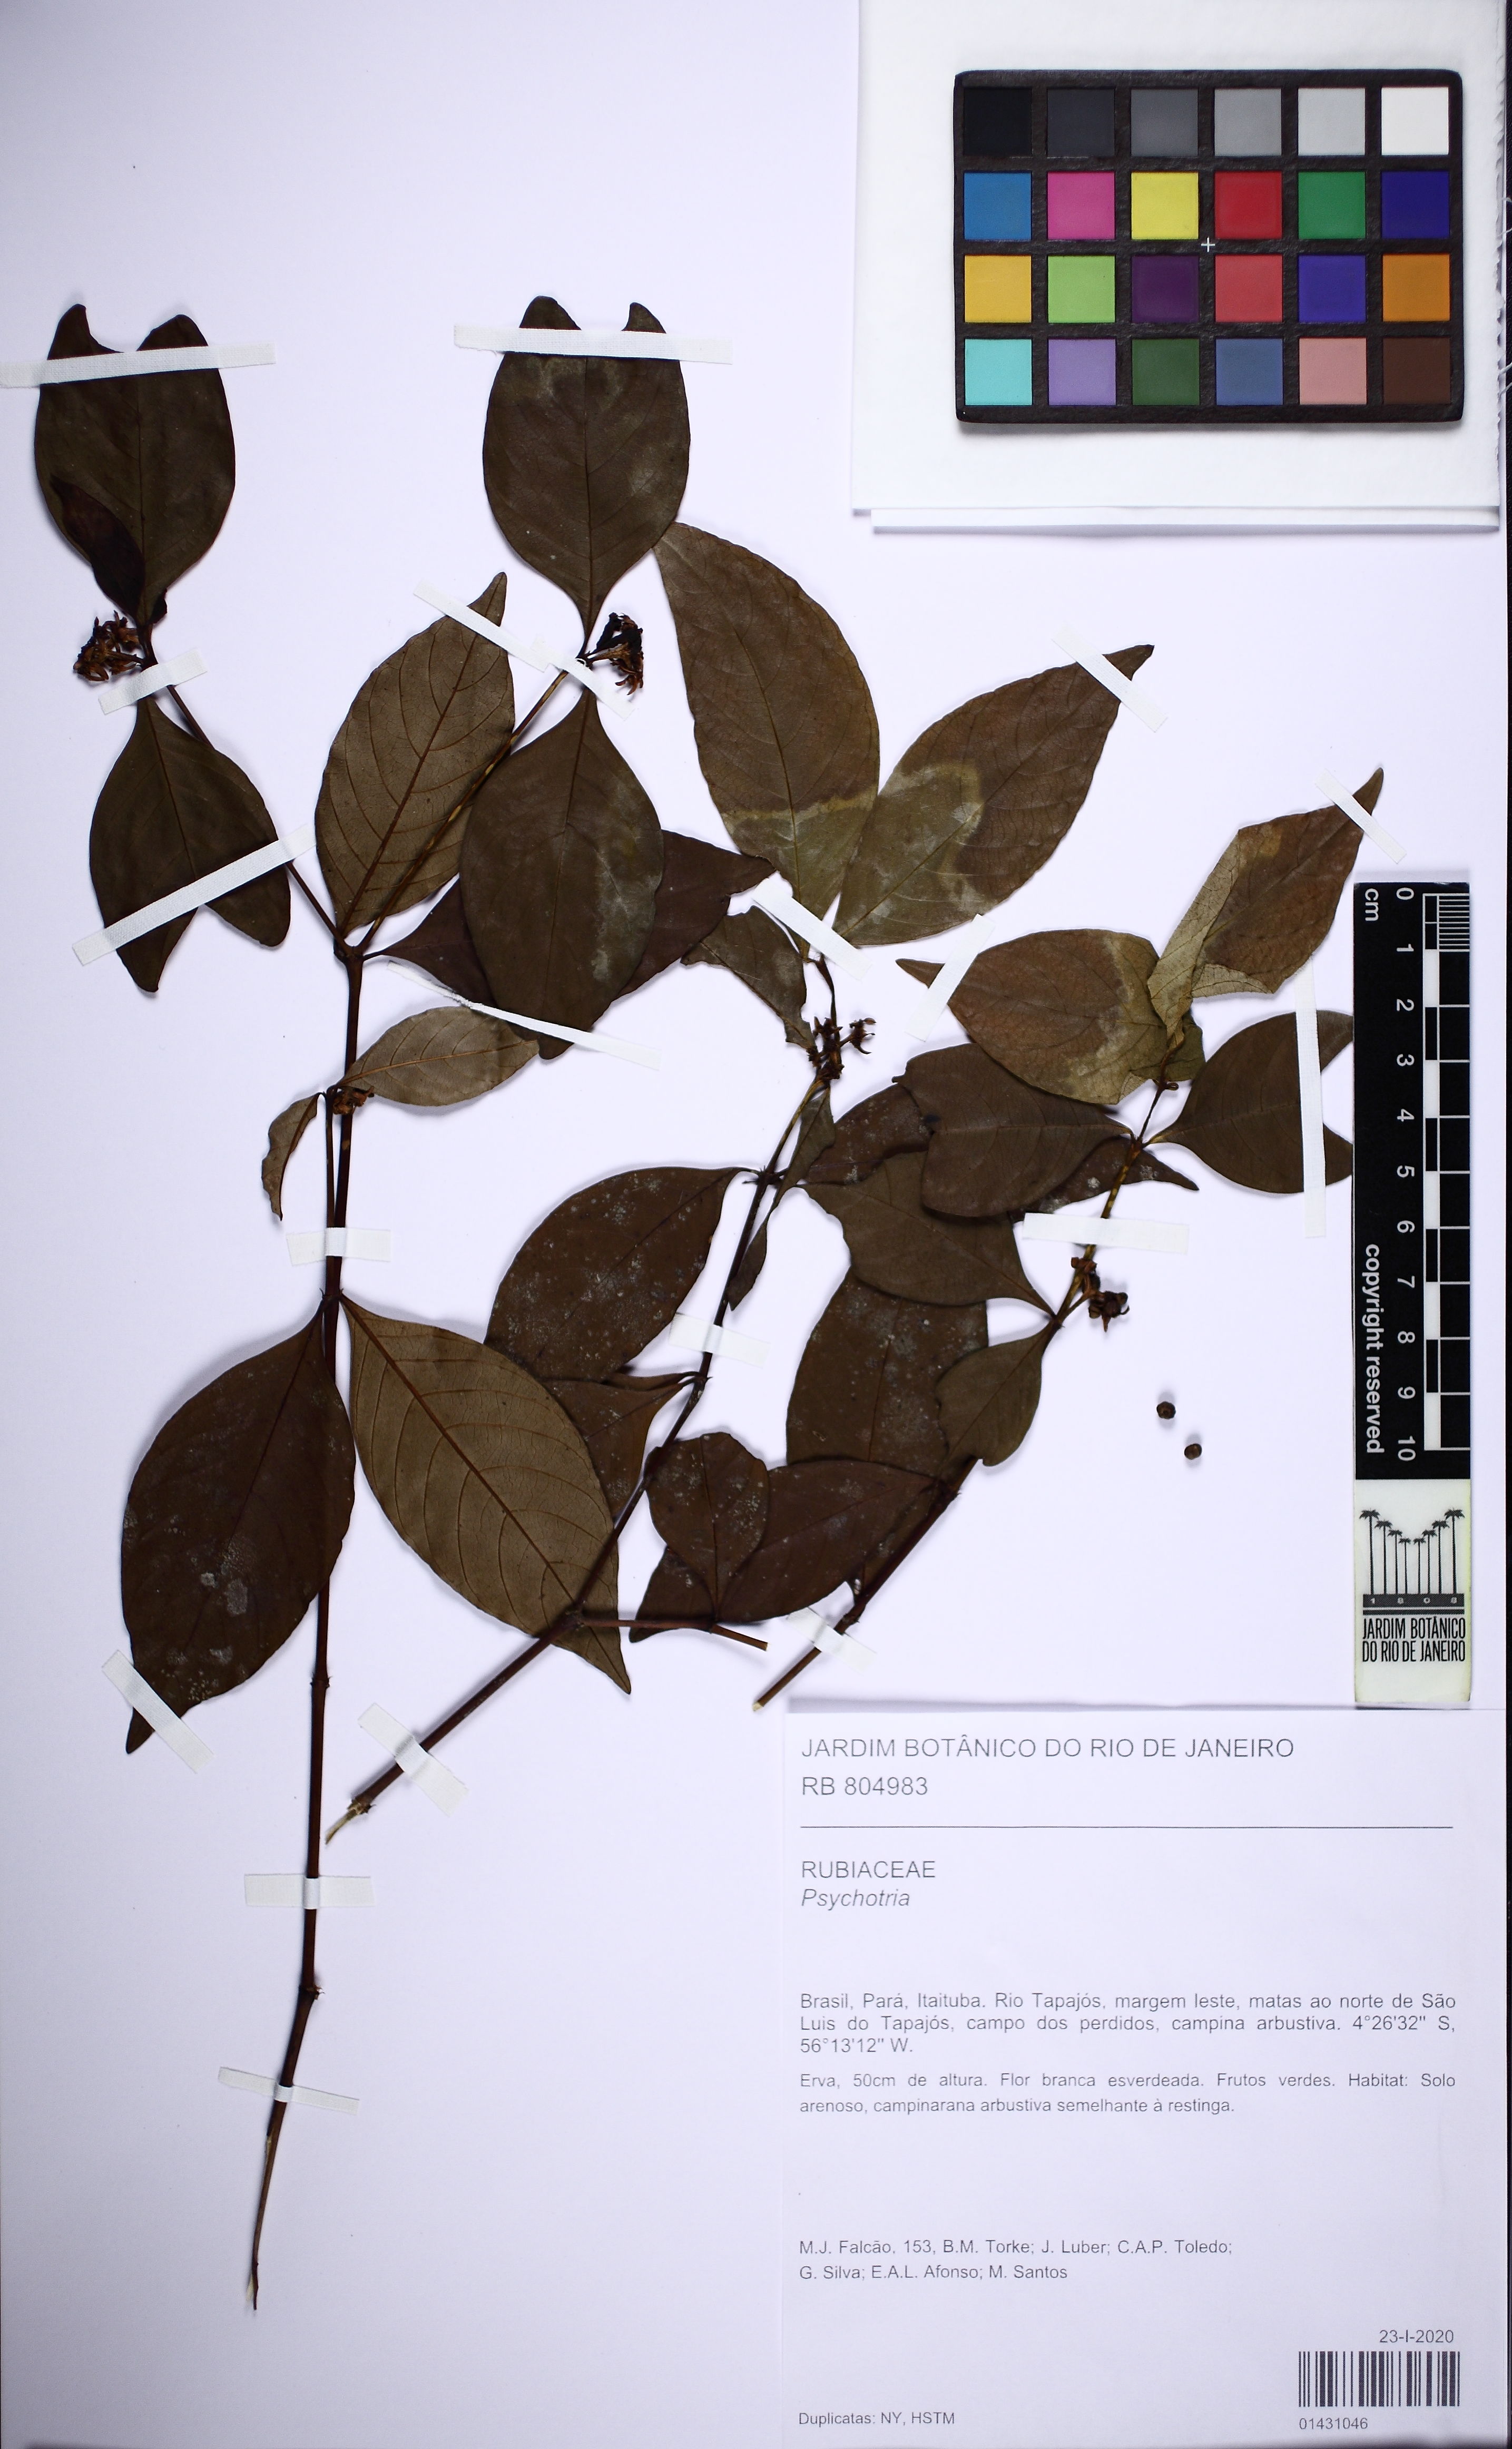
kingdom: Plantae
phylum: Tracheophyta
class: Magnoliopsida
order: Gentianales
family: Rubiaceae
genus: Palicourea
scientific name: Palicourea hoffmannseggiana
